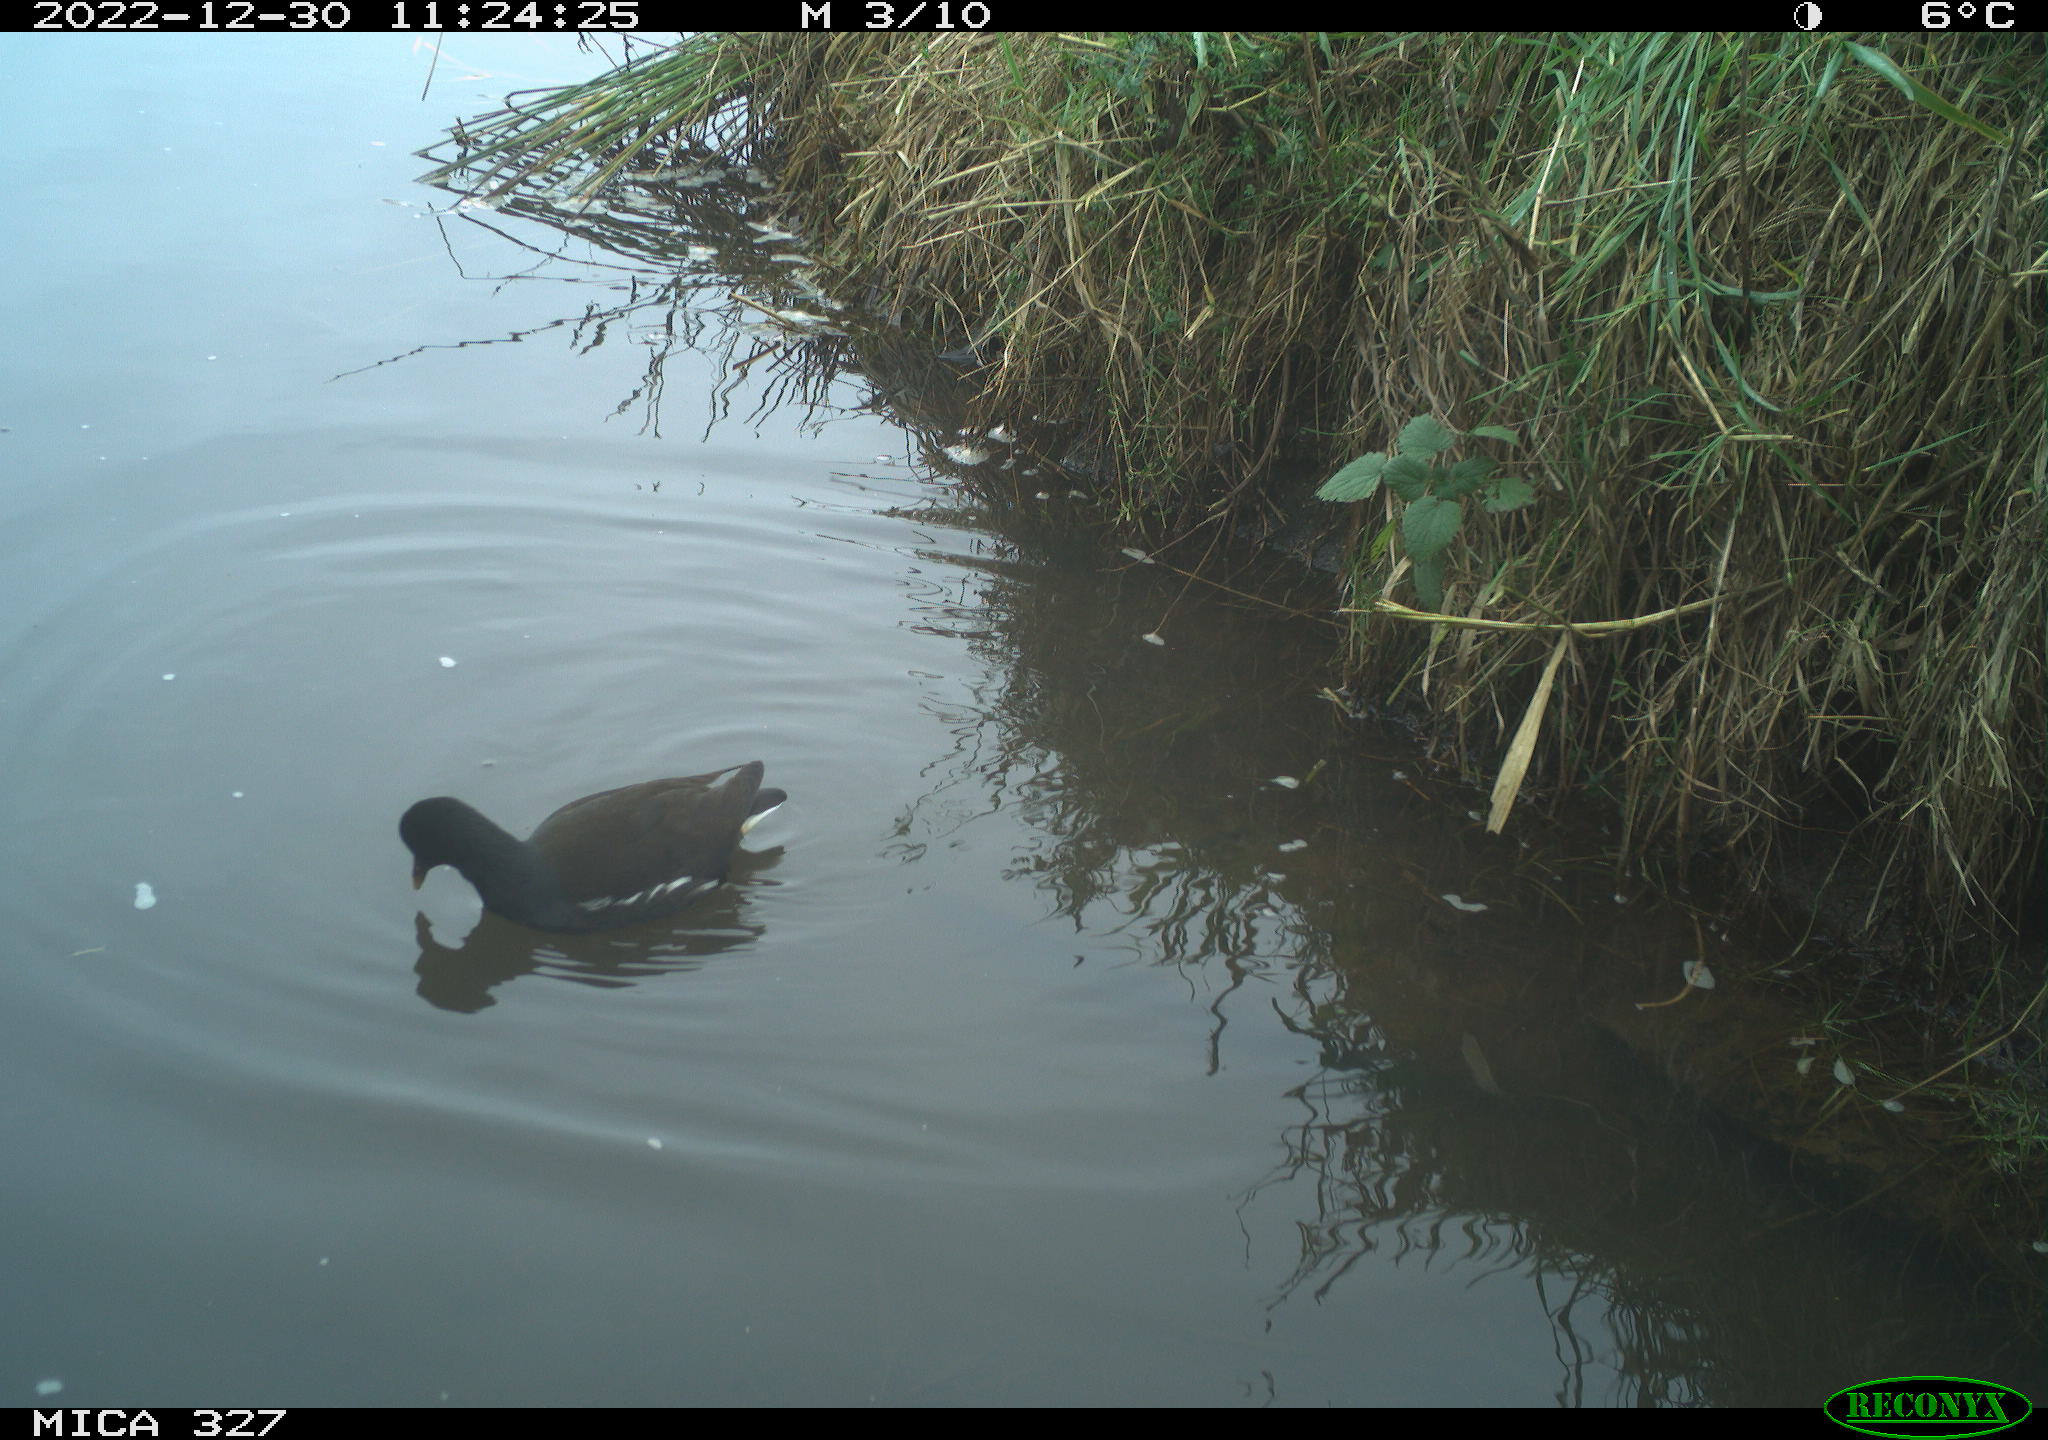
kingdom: Animalia
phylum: Chordata
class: Aves
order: Gruiformes
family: Rallidae
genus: Gallinula
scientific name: Gallinula chloropus
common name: Common moorhen
